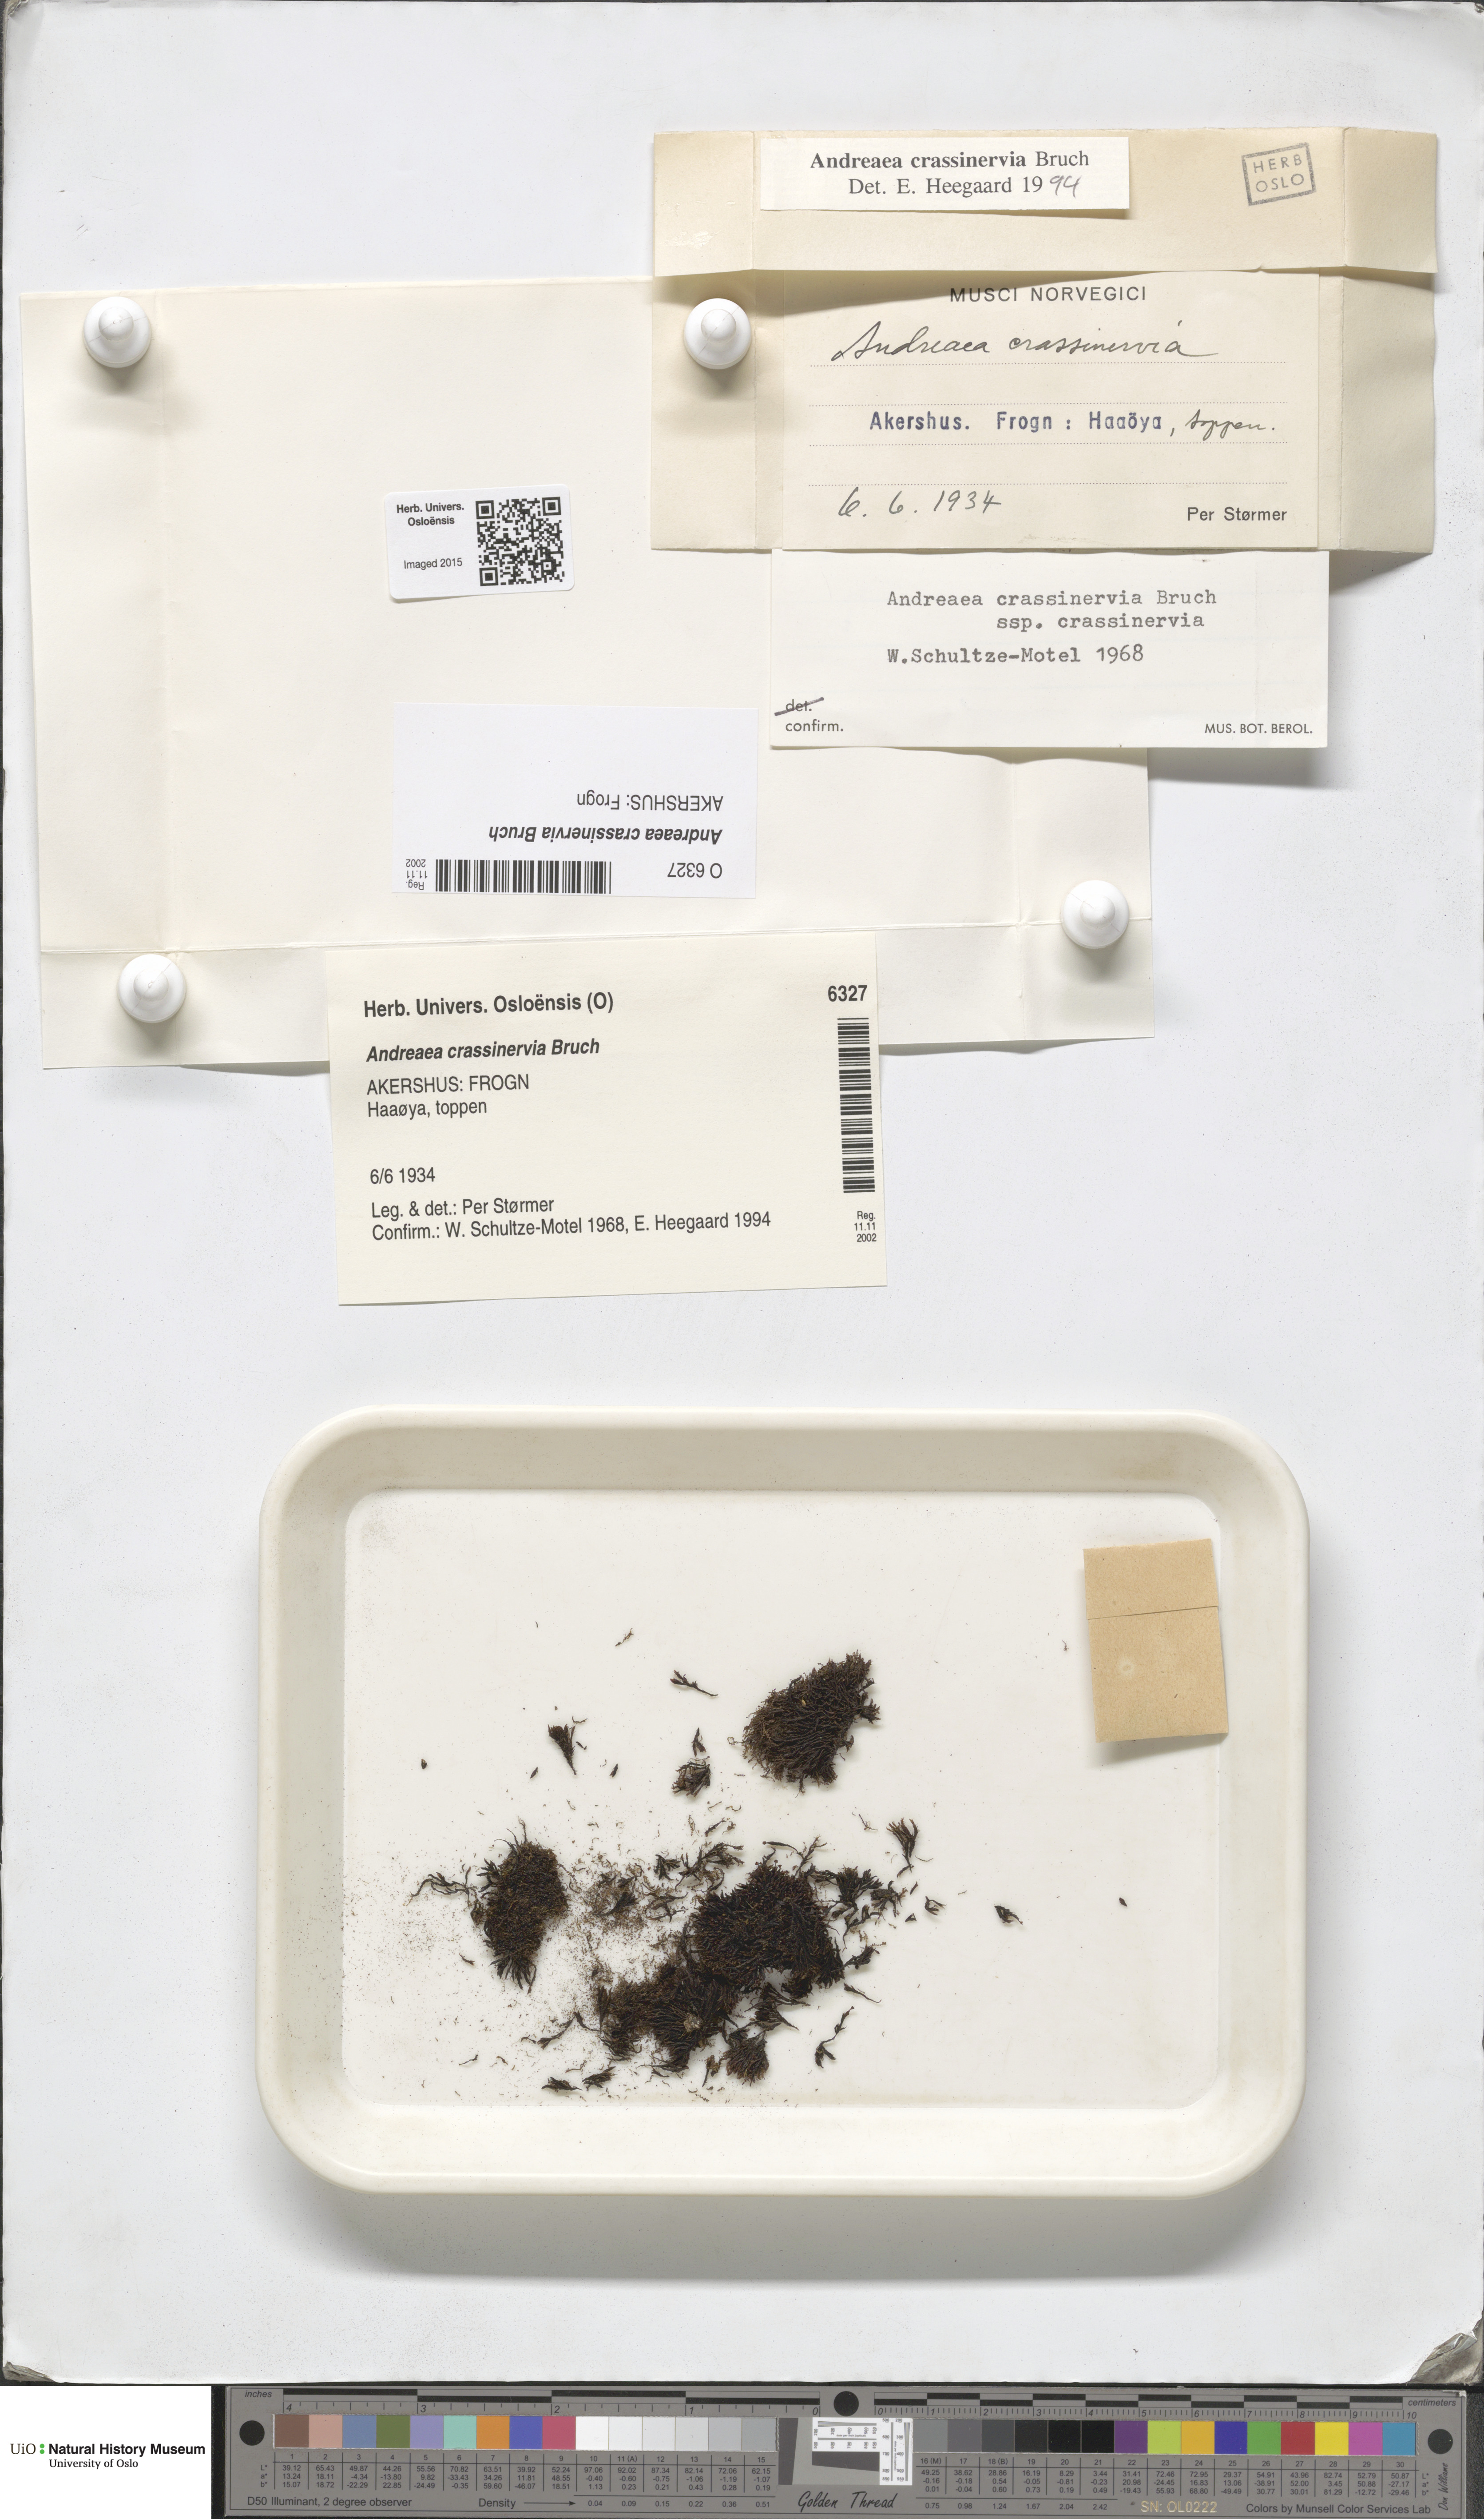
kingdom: Plantae
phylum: Bryophyta
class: Andreaeopsida
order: Andreaeales
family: Andreaeaceae
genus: Andreaea
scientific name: Andreaea crassinervia
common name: Thick-nerved rock moss
